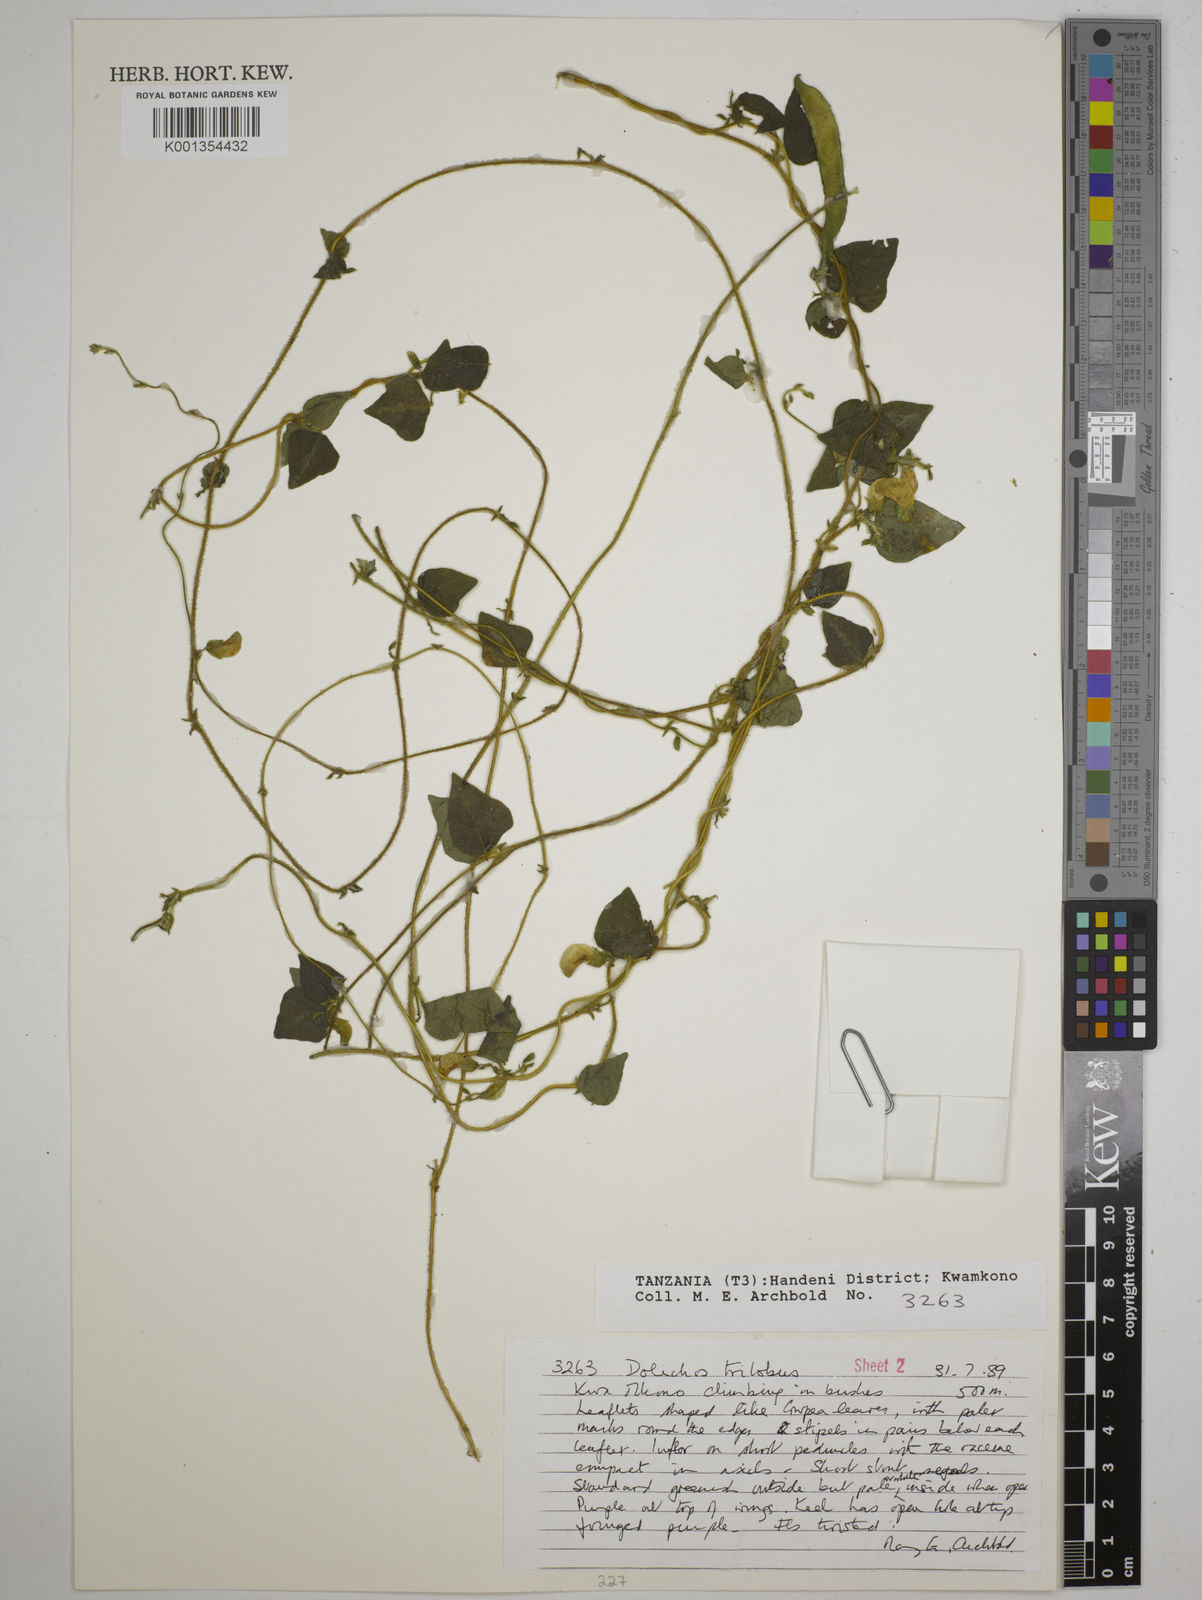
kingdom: Plantae
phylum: Tracheophyta
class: Magnoliopsida
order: Fabales
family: Fabaceae
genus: Dolichos
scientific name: Dolichos
